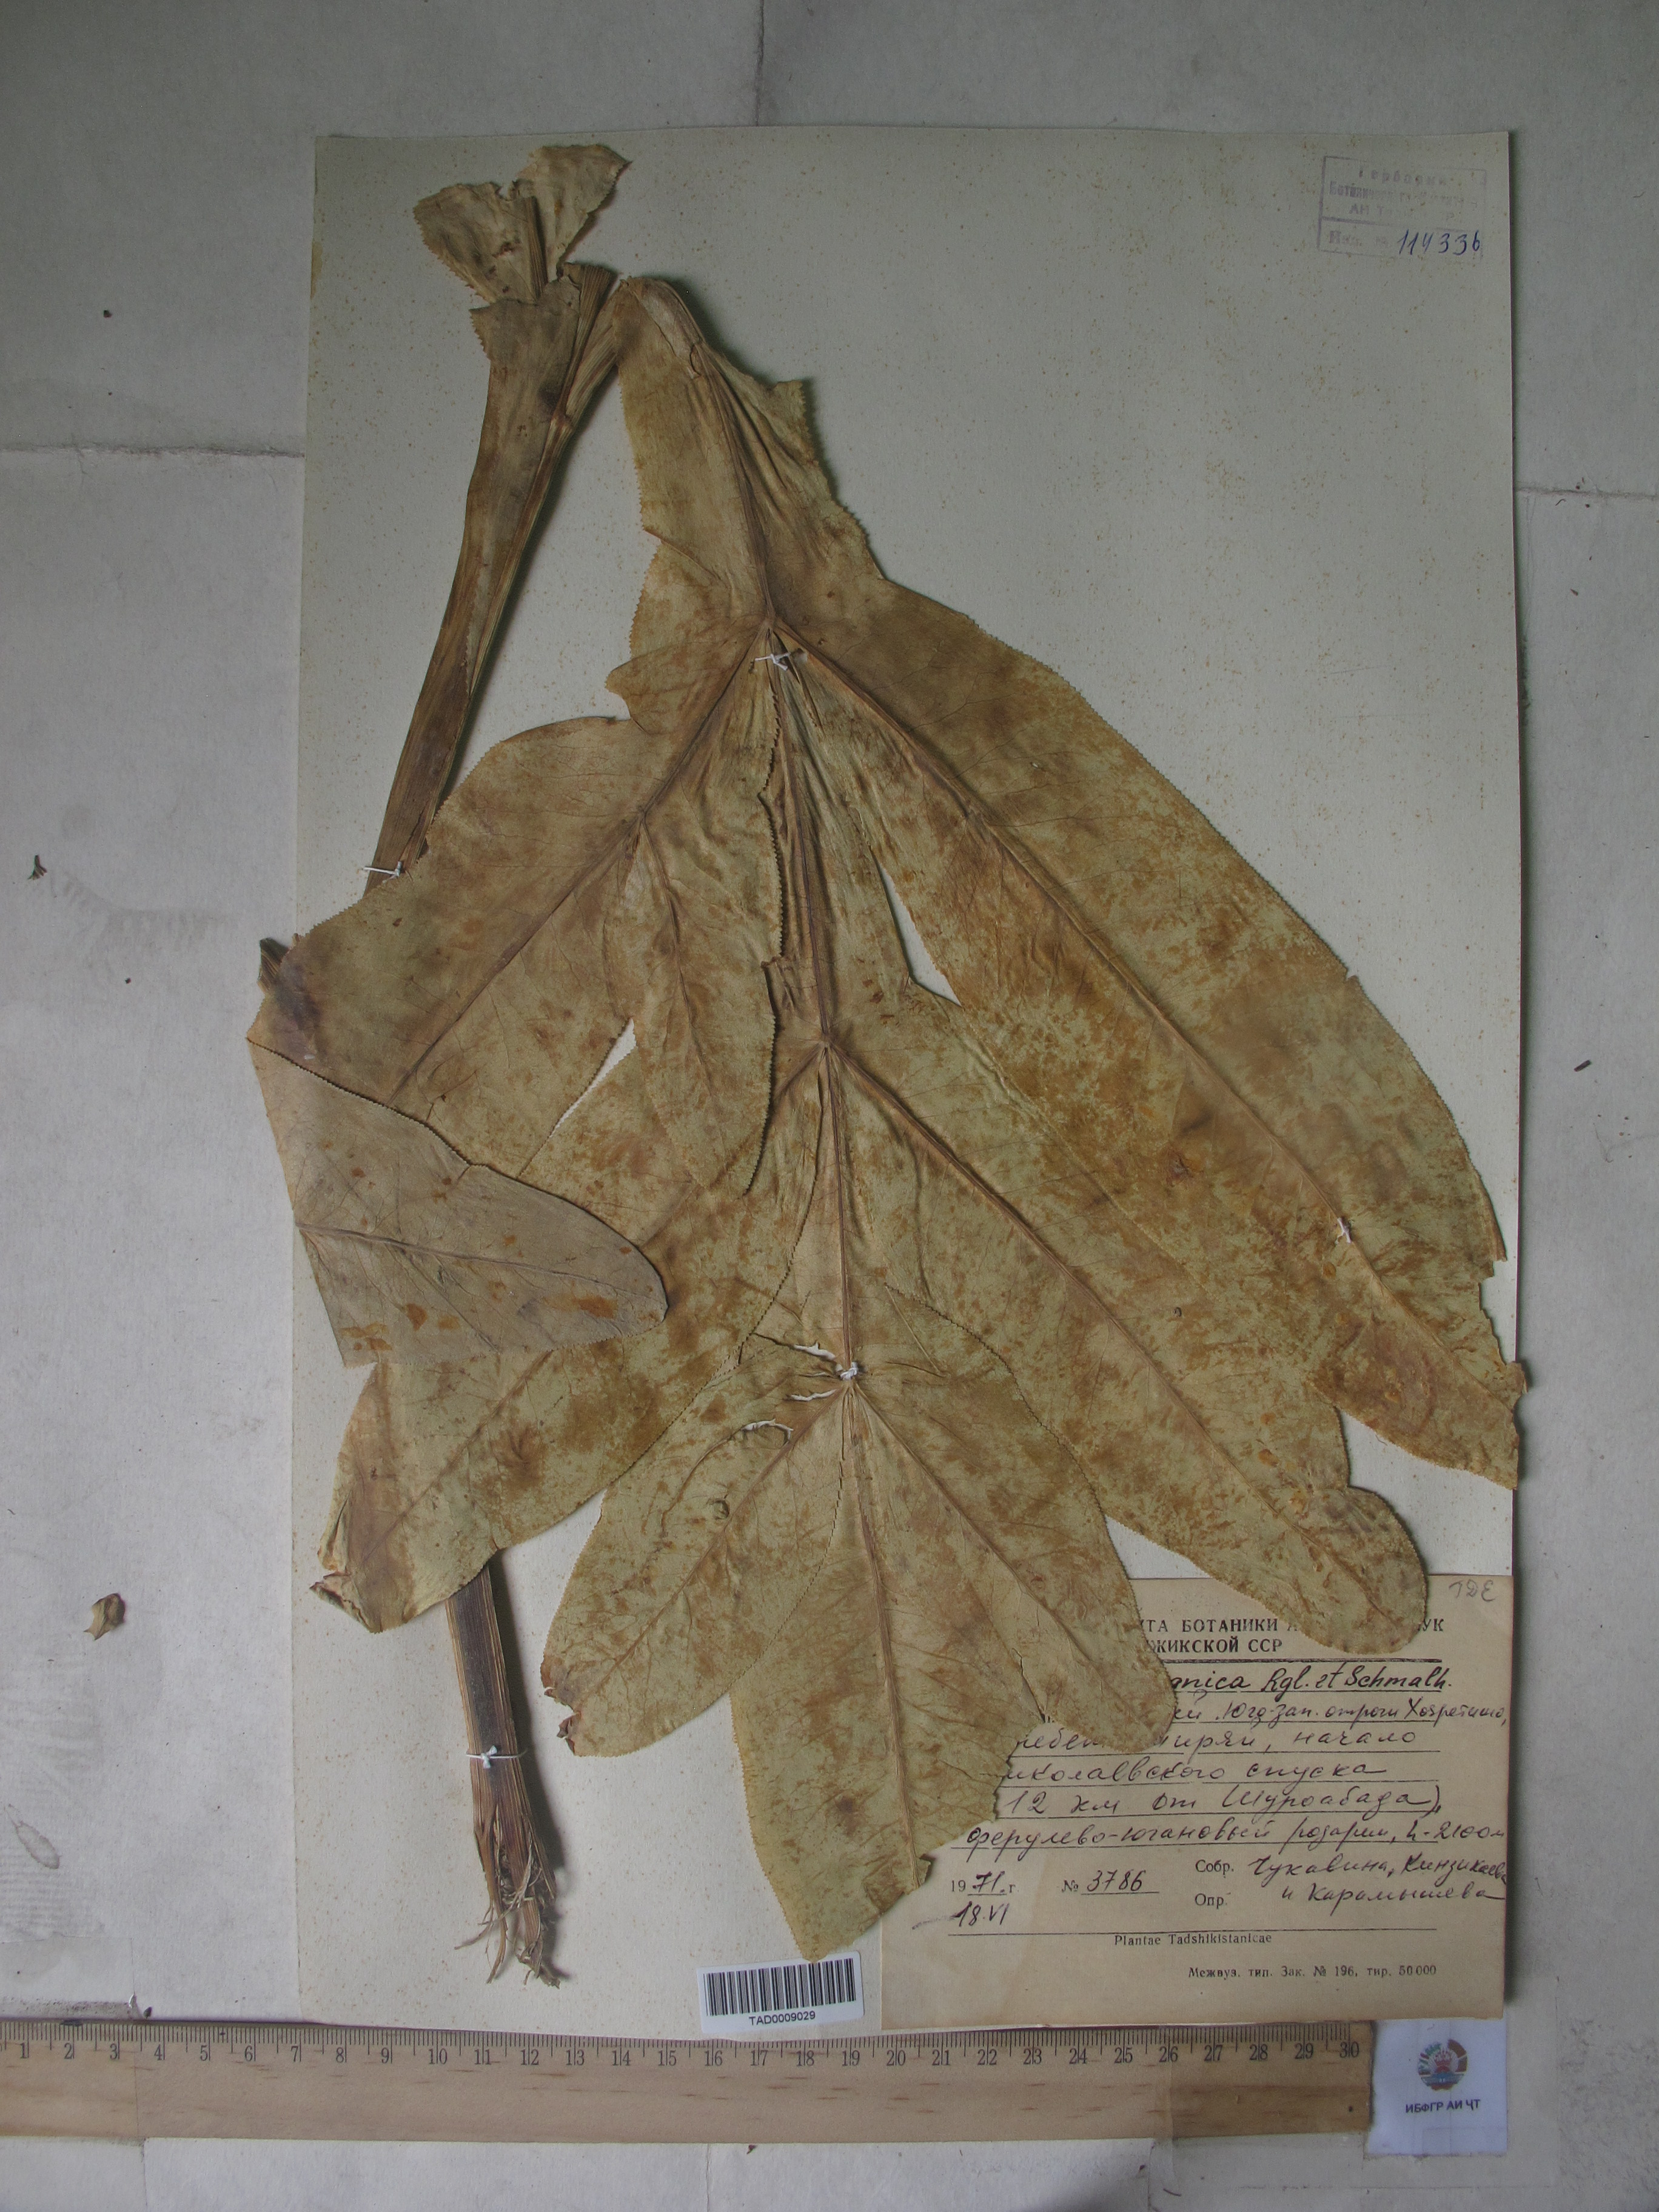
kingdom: Plantae
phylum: Tracheophyta
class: Magnoliopsida
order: Apiales
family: Apiaceae
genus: Ferula
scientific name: Ferula kokanica
